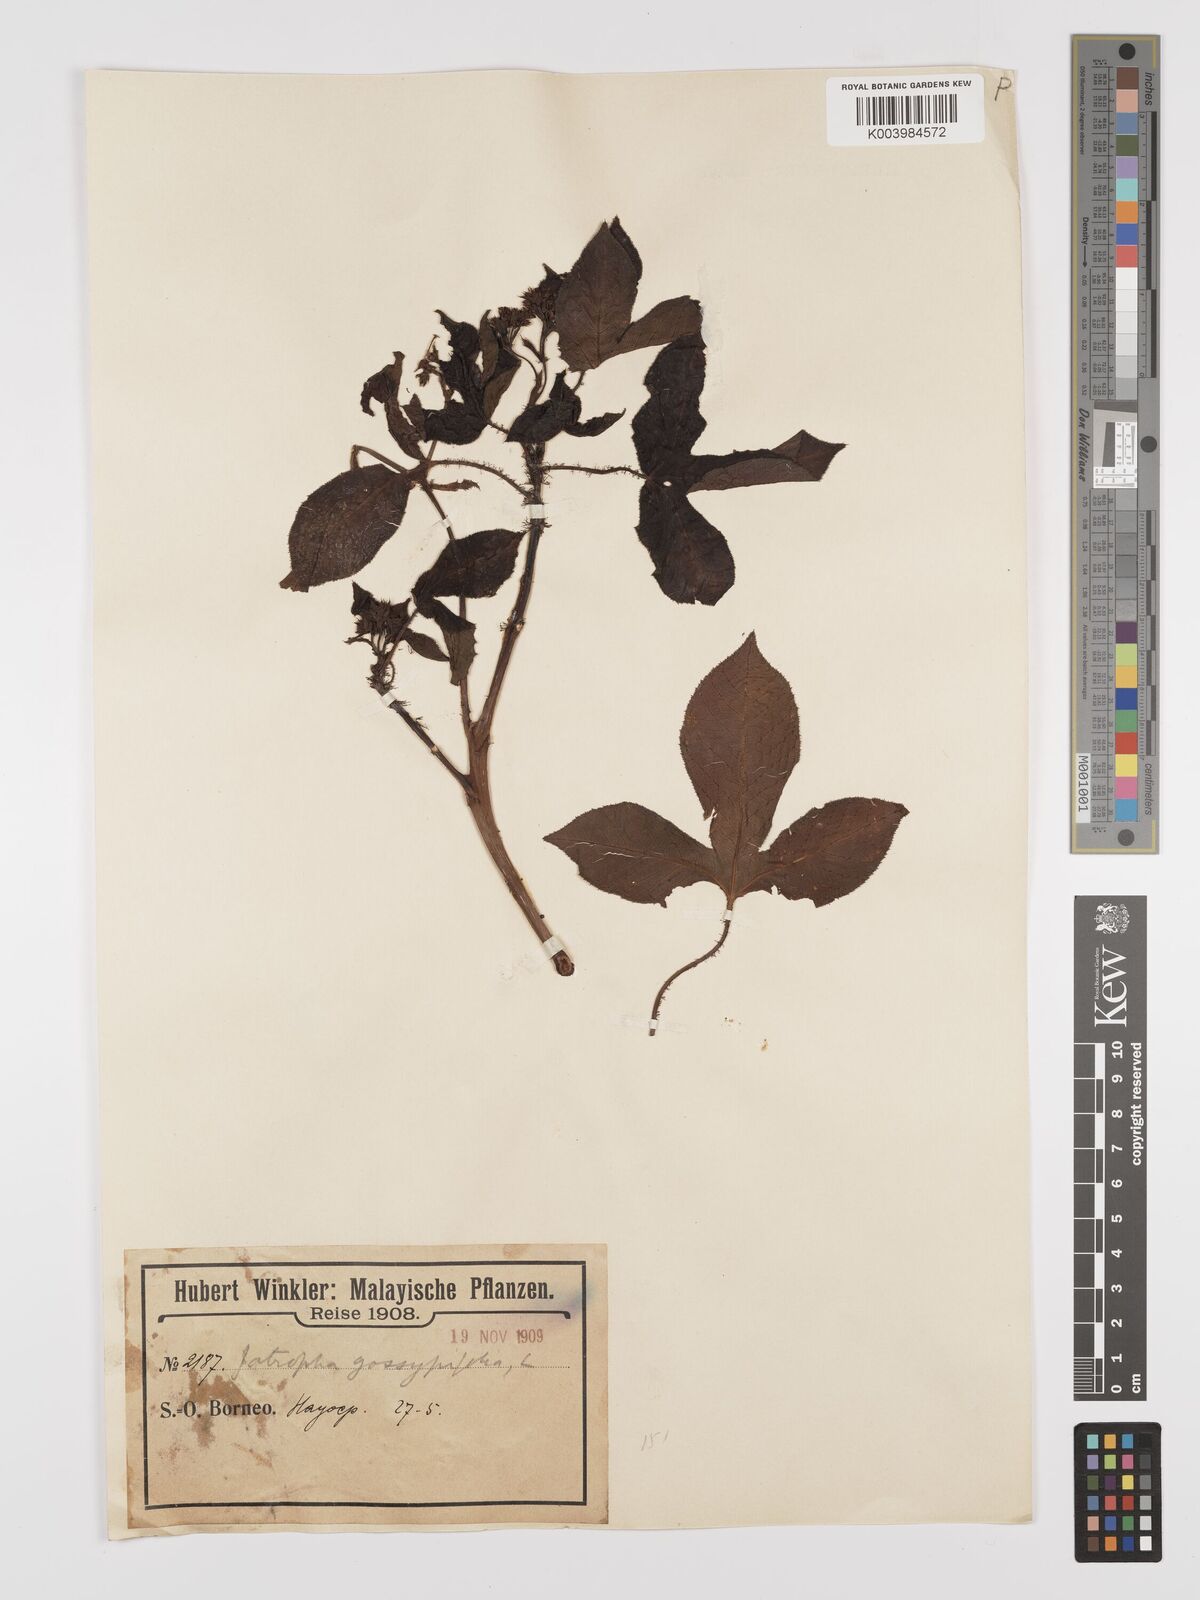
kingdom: Plantae
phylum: Tracheophyta
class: Magnoliopsida
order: Malpighiales
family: Euphorbiaceae
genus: Jatropha
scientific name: Jatropha gossypiifolia
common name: Bellyache bush
